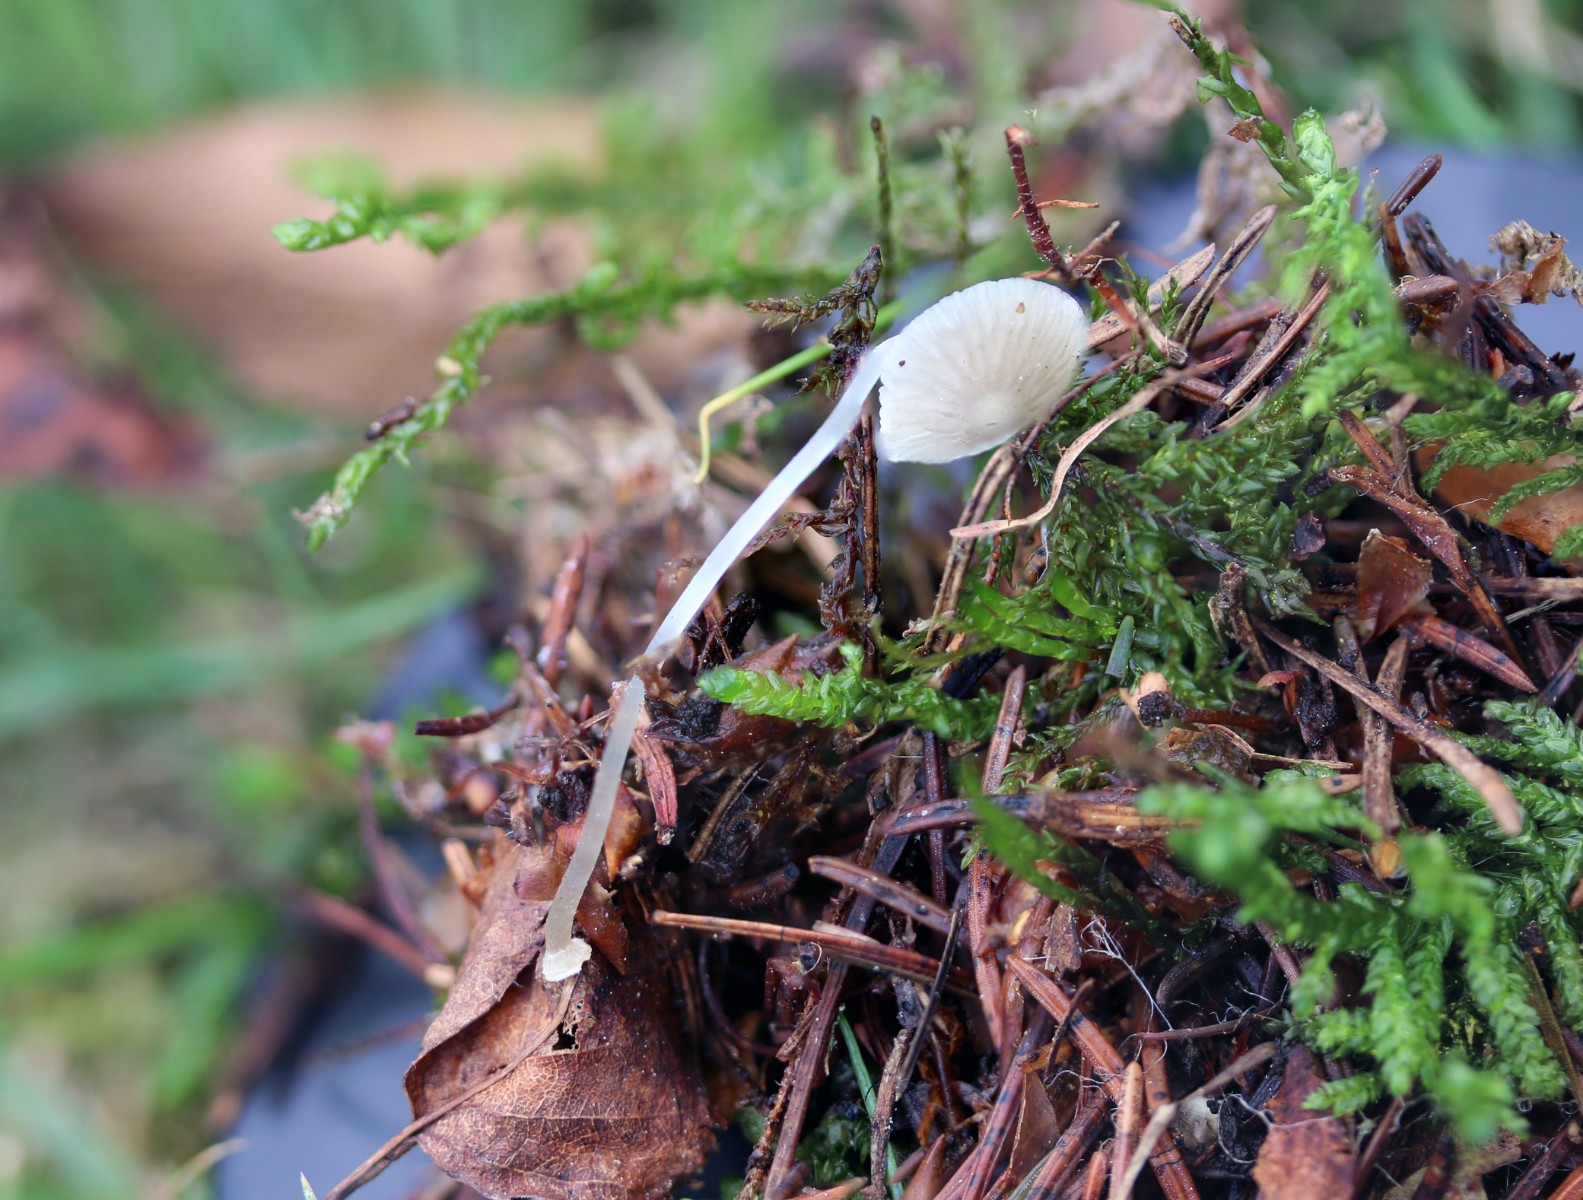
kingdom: Fungi
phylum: Basidiomycota
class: Agaricomycetes
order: Agaricales
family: Mycenaceae
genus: Mycena
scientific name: Mycena stylobates
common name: fureskivet huesvamp
